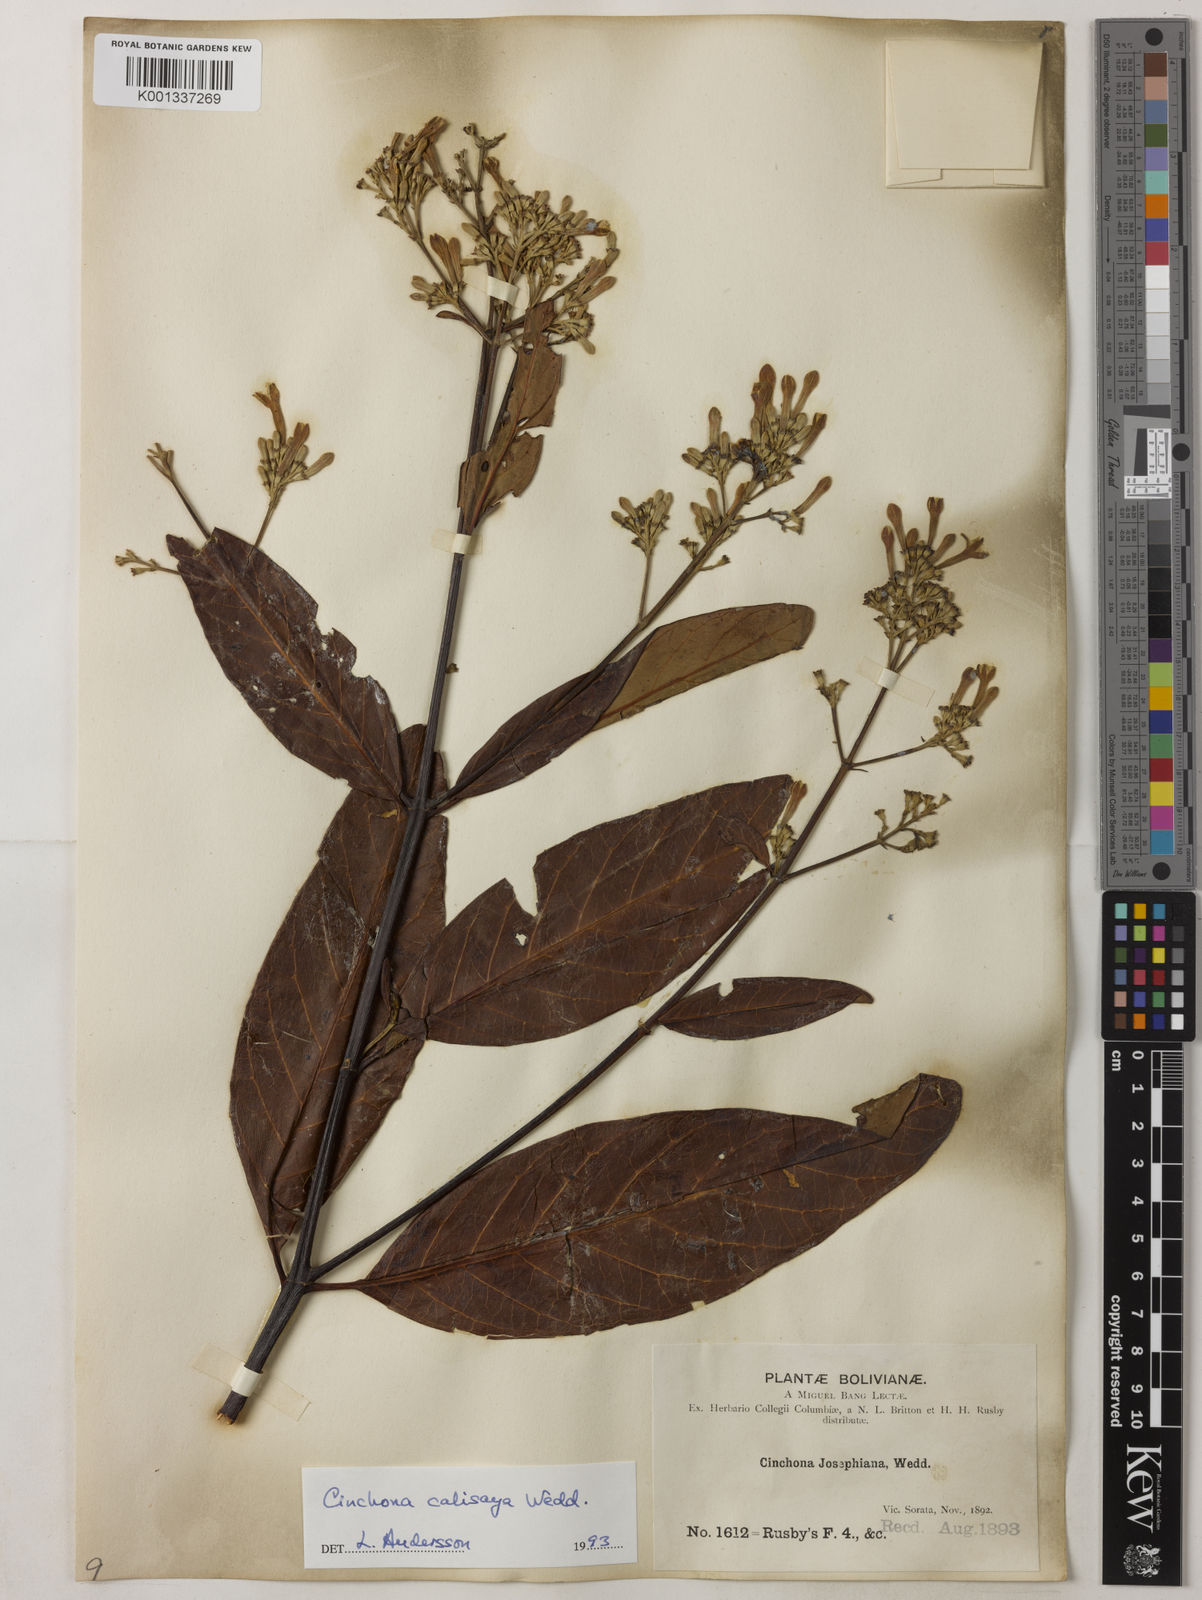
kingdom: Plantae
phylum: Tracheophyta
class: Magnoliopsida
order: Gentianales
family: Rubiaceae
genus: Cinchona
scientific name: Cinchona calisaya
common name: Ledgerbark
